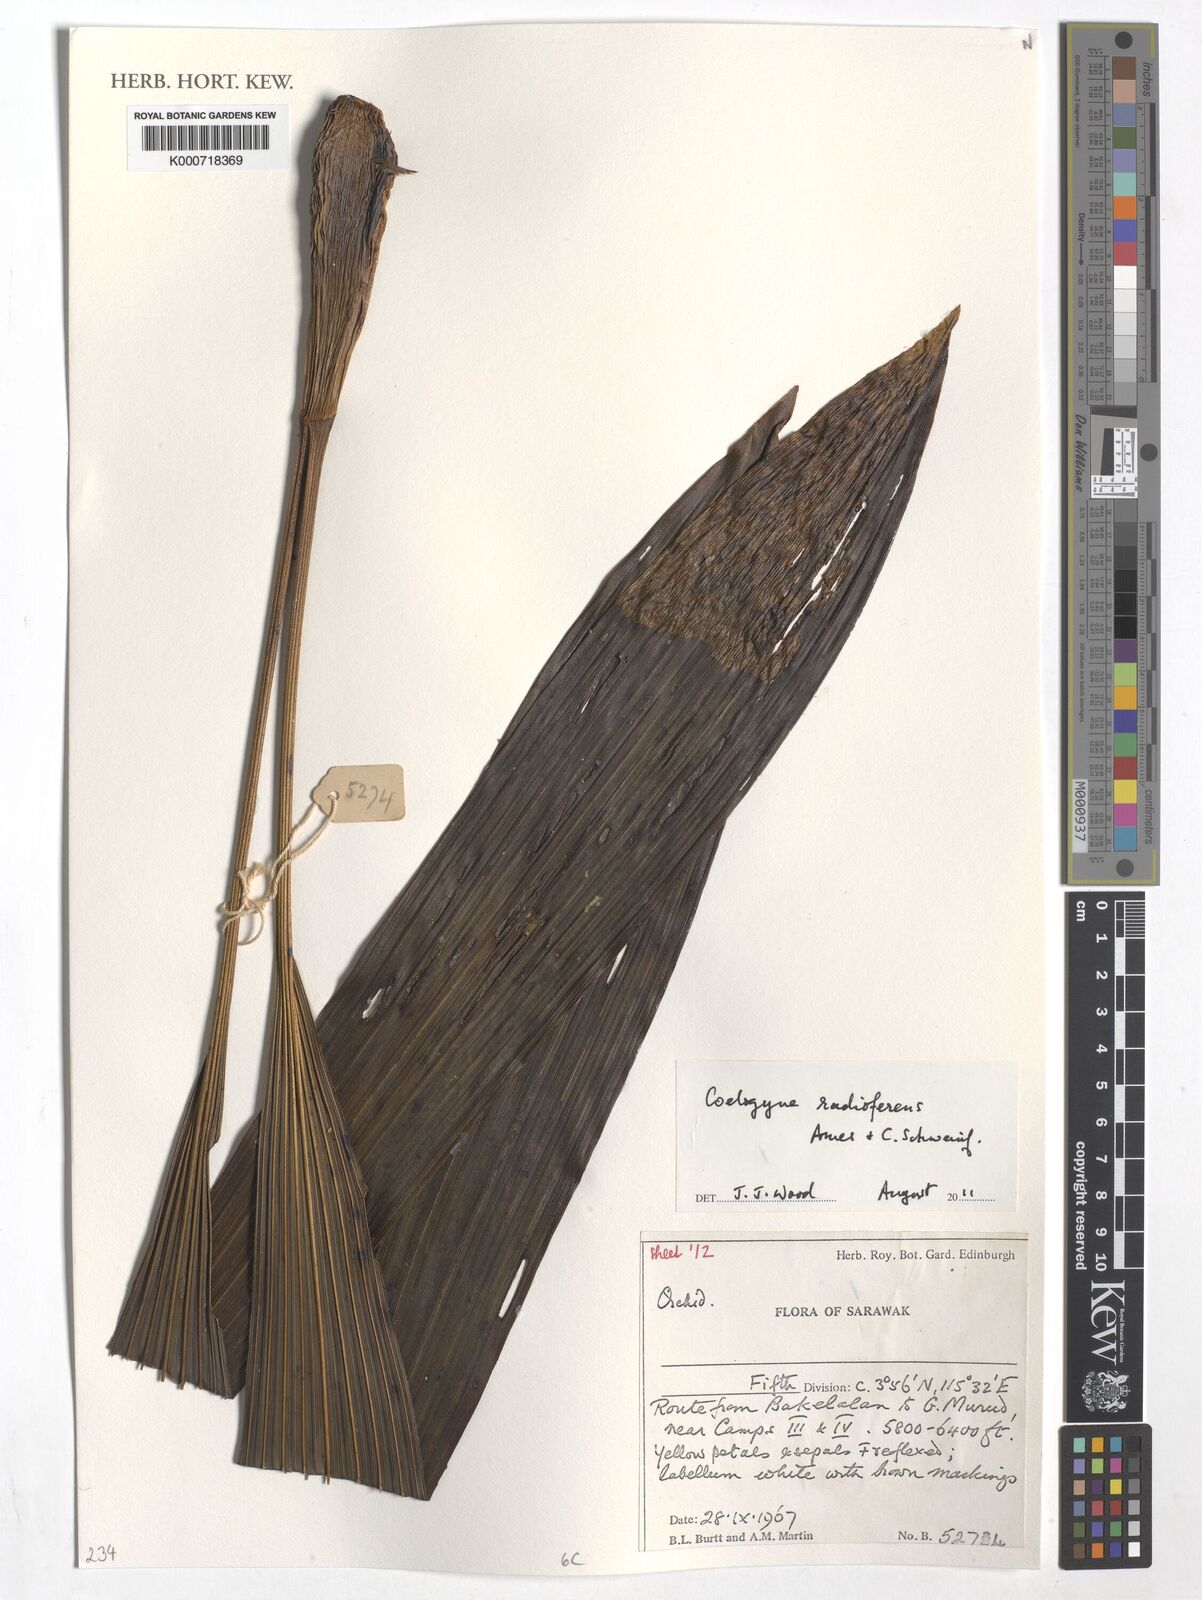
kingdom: Plantae
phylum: Tracheophyta
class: Liliopsida
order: Asparagales
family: Orchidaceae
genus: Coelogyne
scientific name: Coelogyne radioferens
